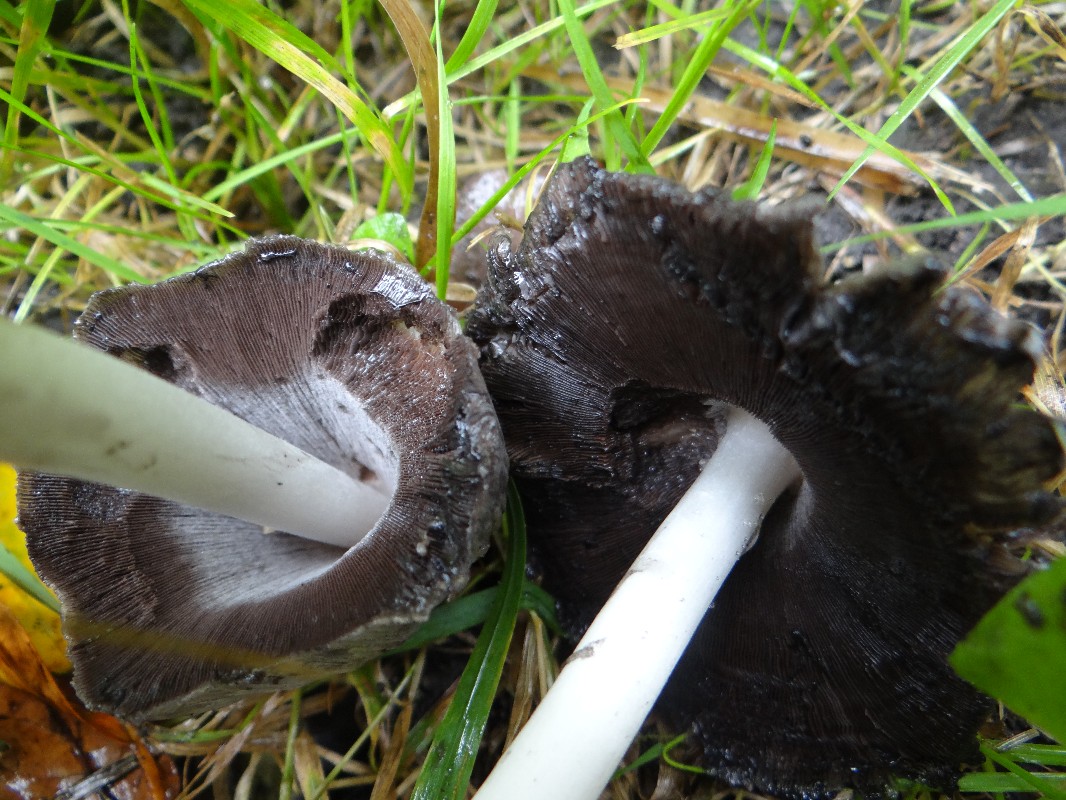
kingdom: Fungi
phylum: Basidiomycota
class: Agaricomycetes
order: Agaricales
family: Psathyrellaceae
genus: Coprinopsis
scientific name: Coprinopsis atramentaria
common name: almindelig blækhat
